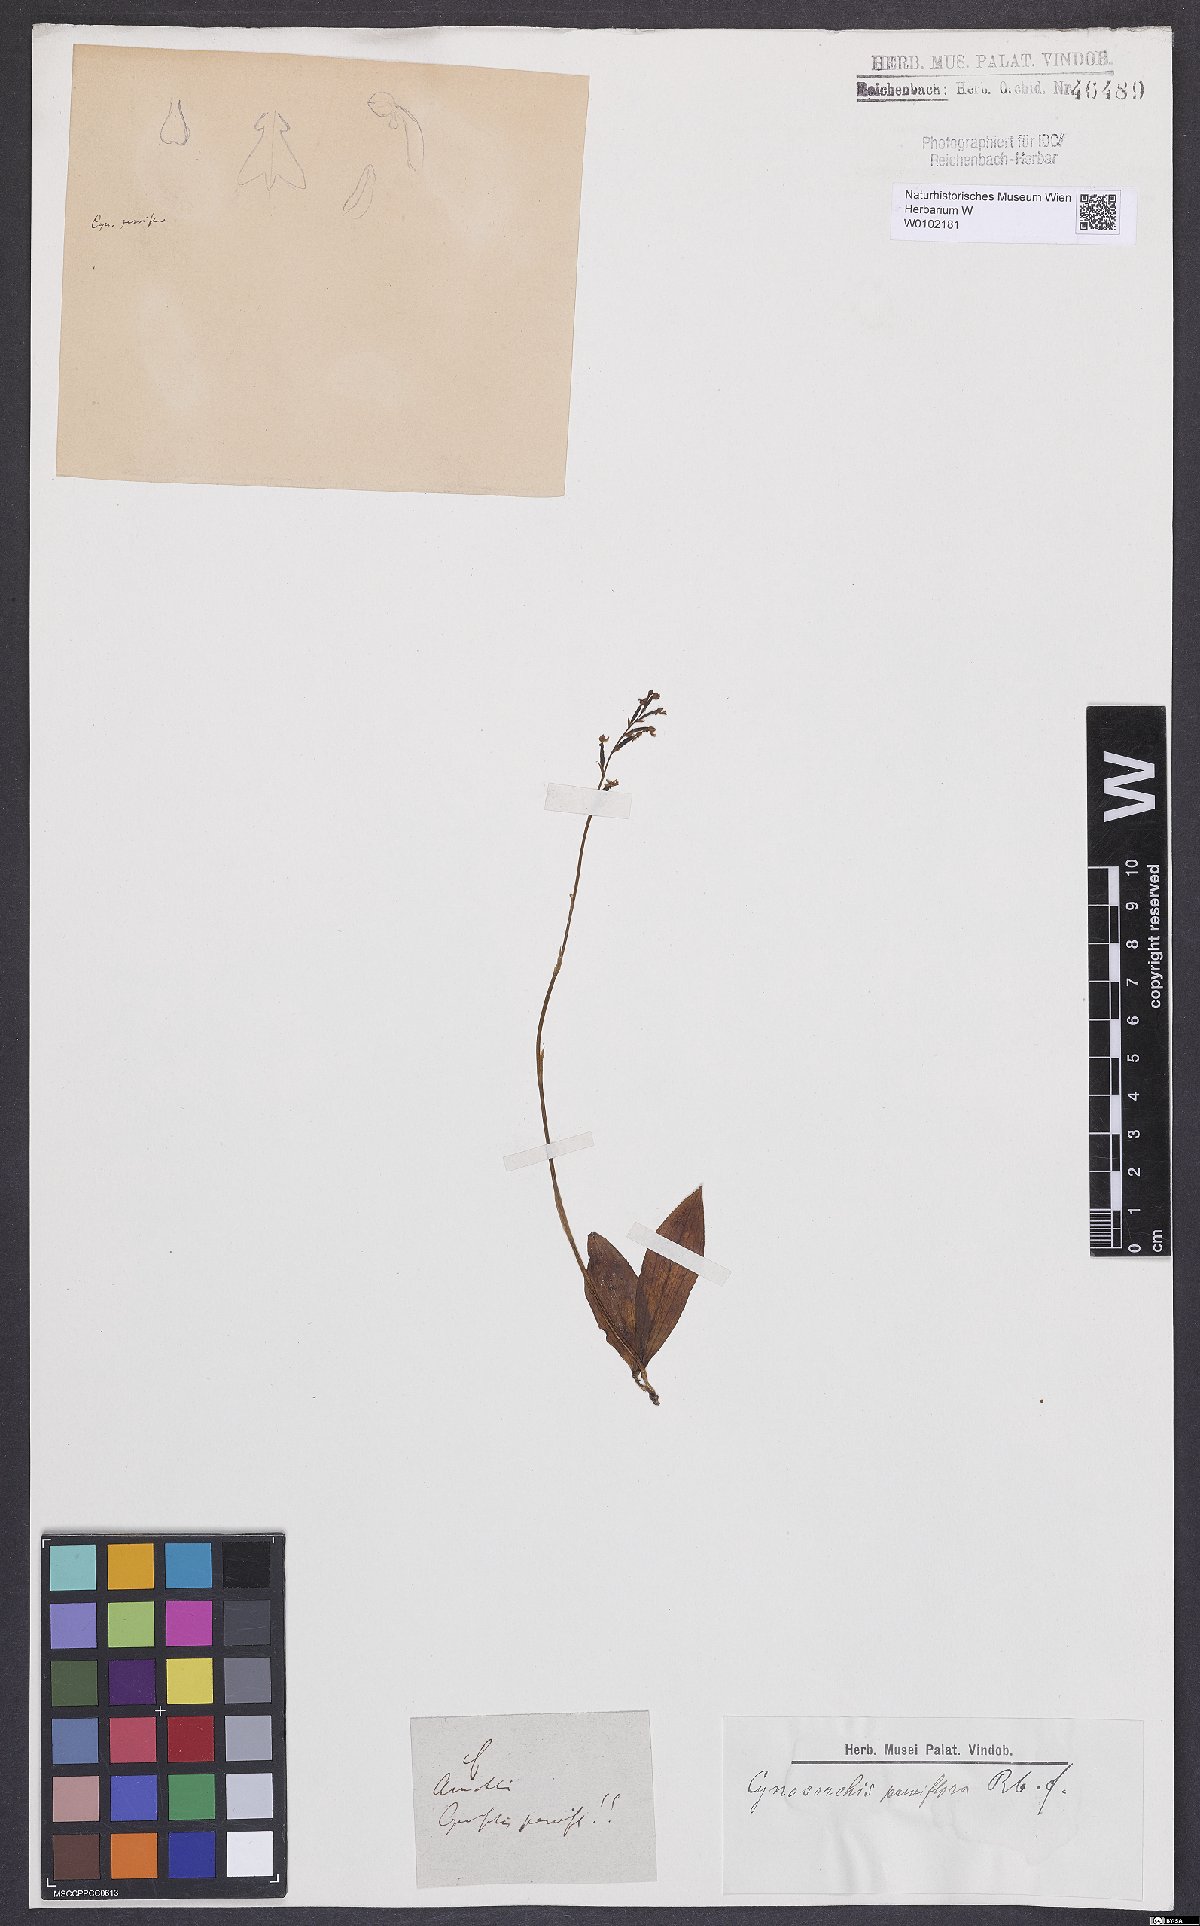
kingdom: Plantae
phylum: Tracheophyta
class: Liliopsida
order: Asparagales
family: Orchidaceae
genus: Cynorkis
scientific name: Cynorkis parviflora
